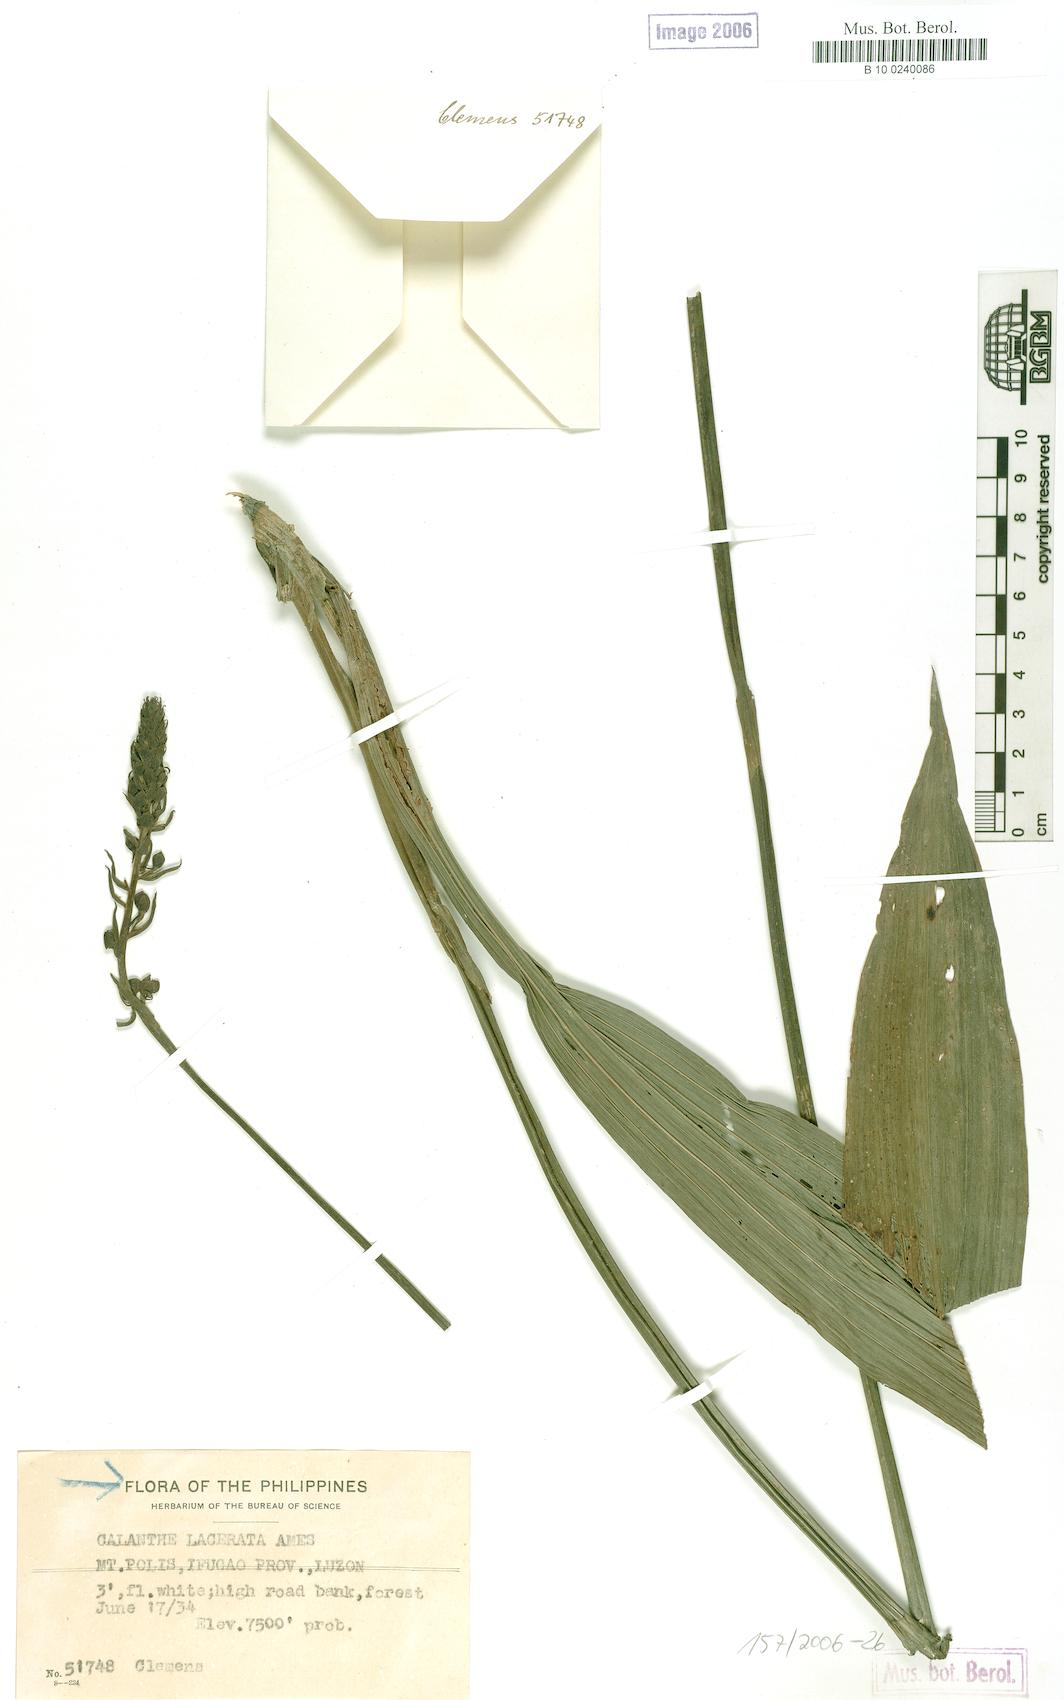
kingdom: Plantae
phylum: Tracheophyta
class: Liliopsida
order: Asparagales
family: Orchidaceae
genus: Calanthe
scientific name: Calanthe lacerata
